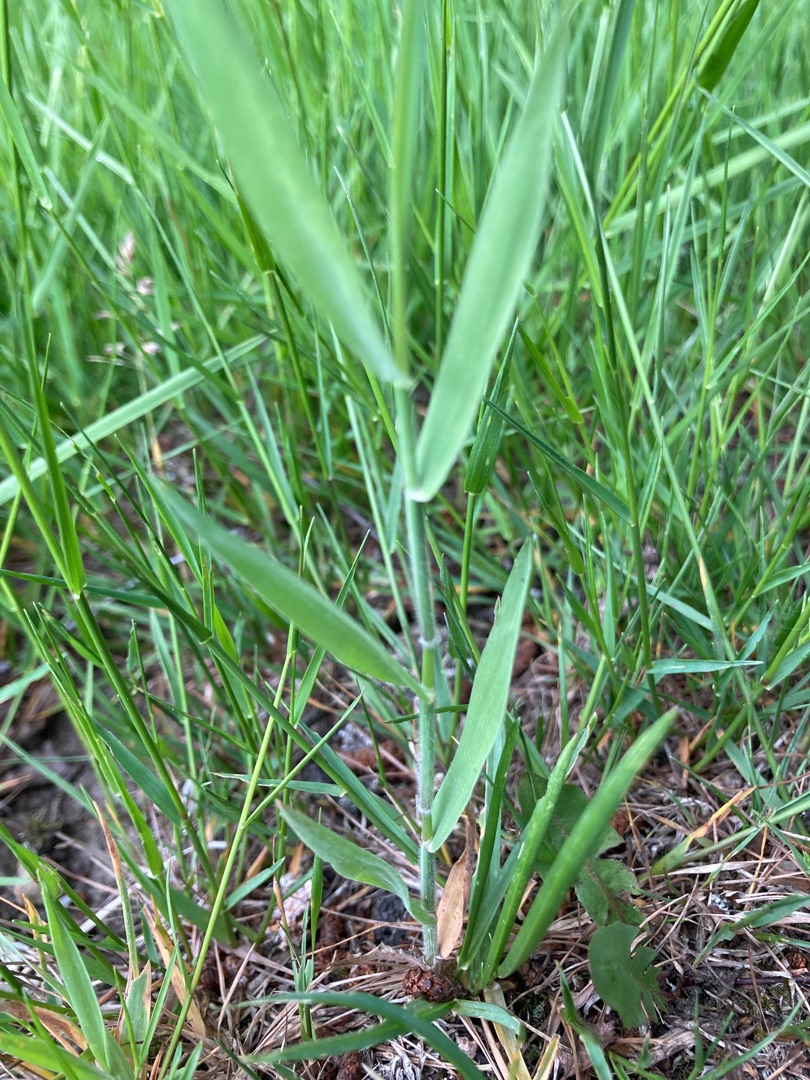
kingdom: Plantae
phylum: Tracheophyta
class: Liliopsida
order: Poales
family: Poaceae
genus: Holcus
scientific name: Holcus mollis
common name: Krybende hestegræs
